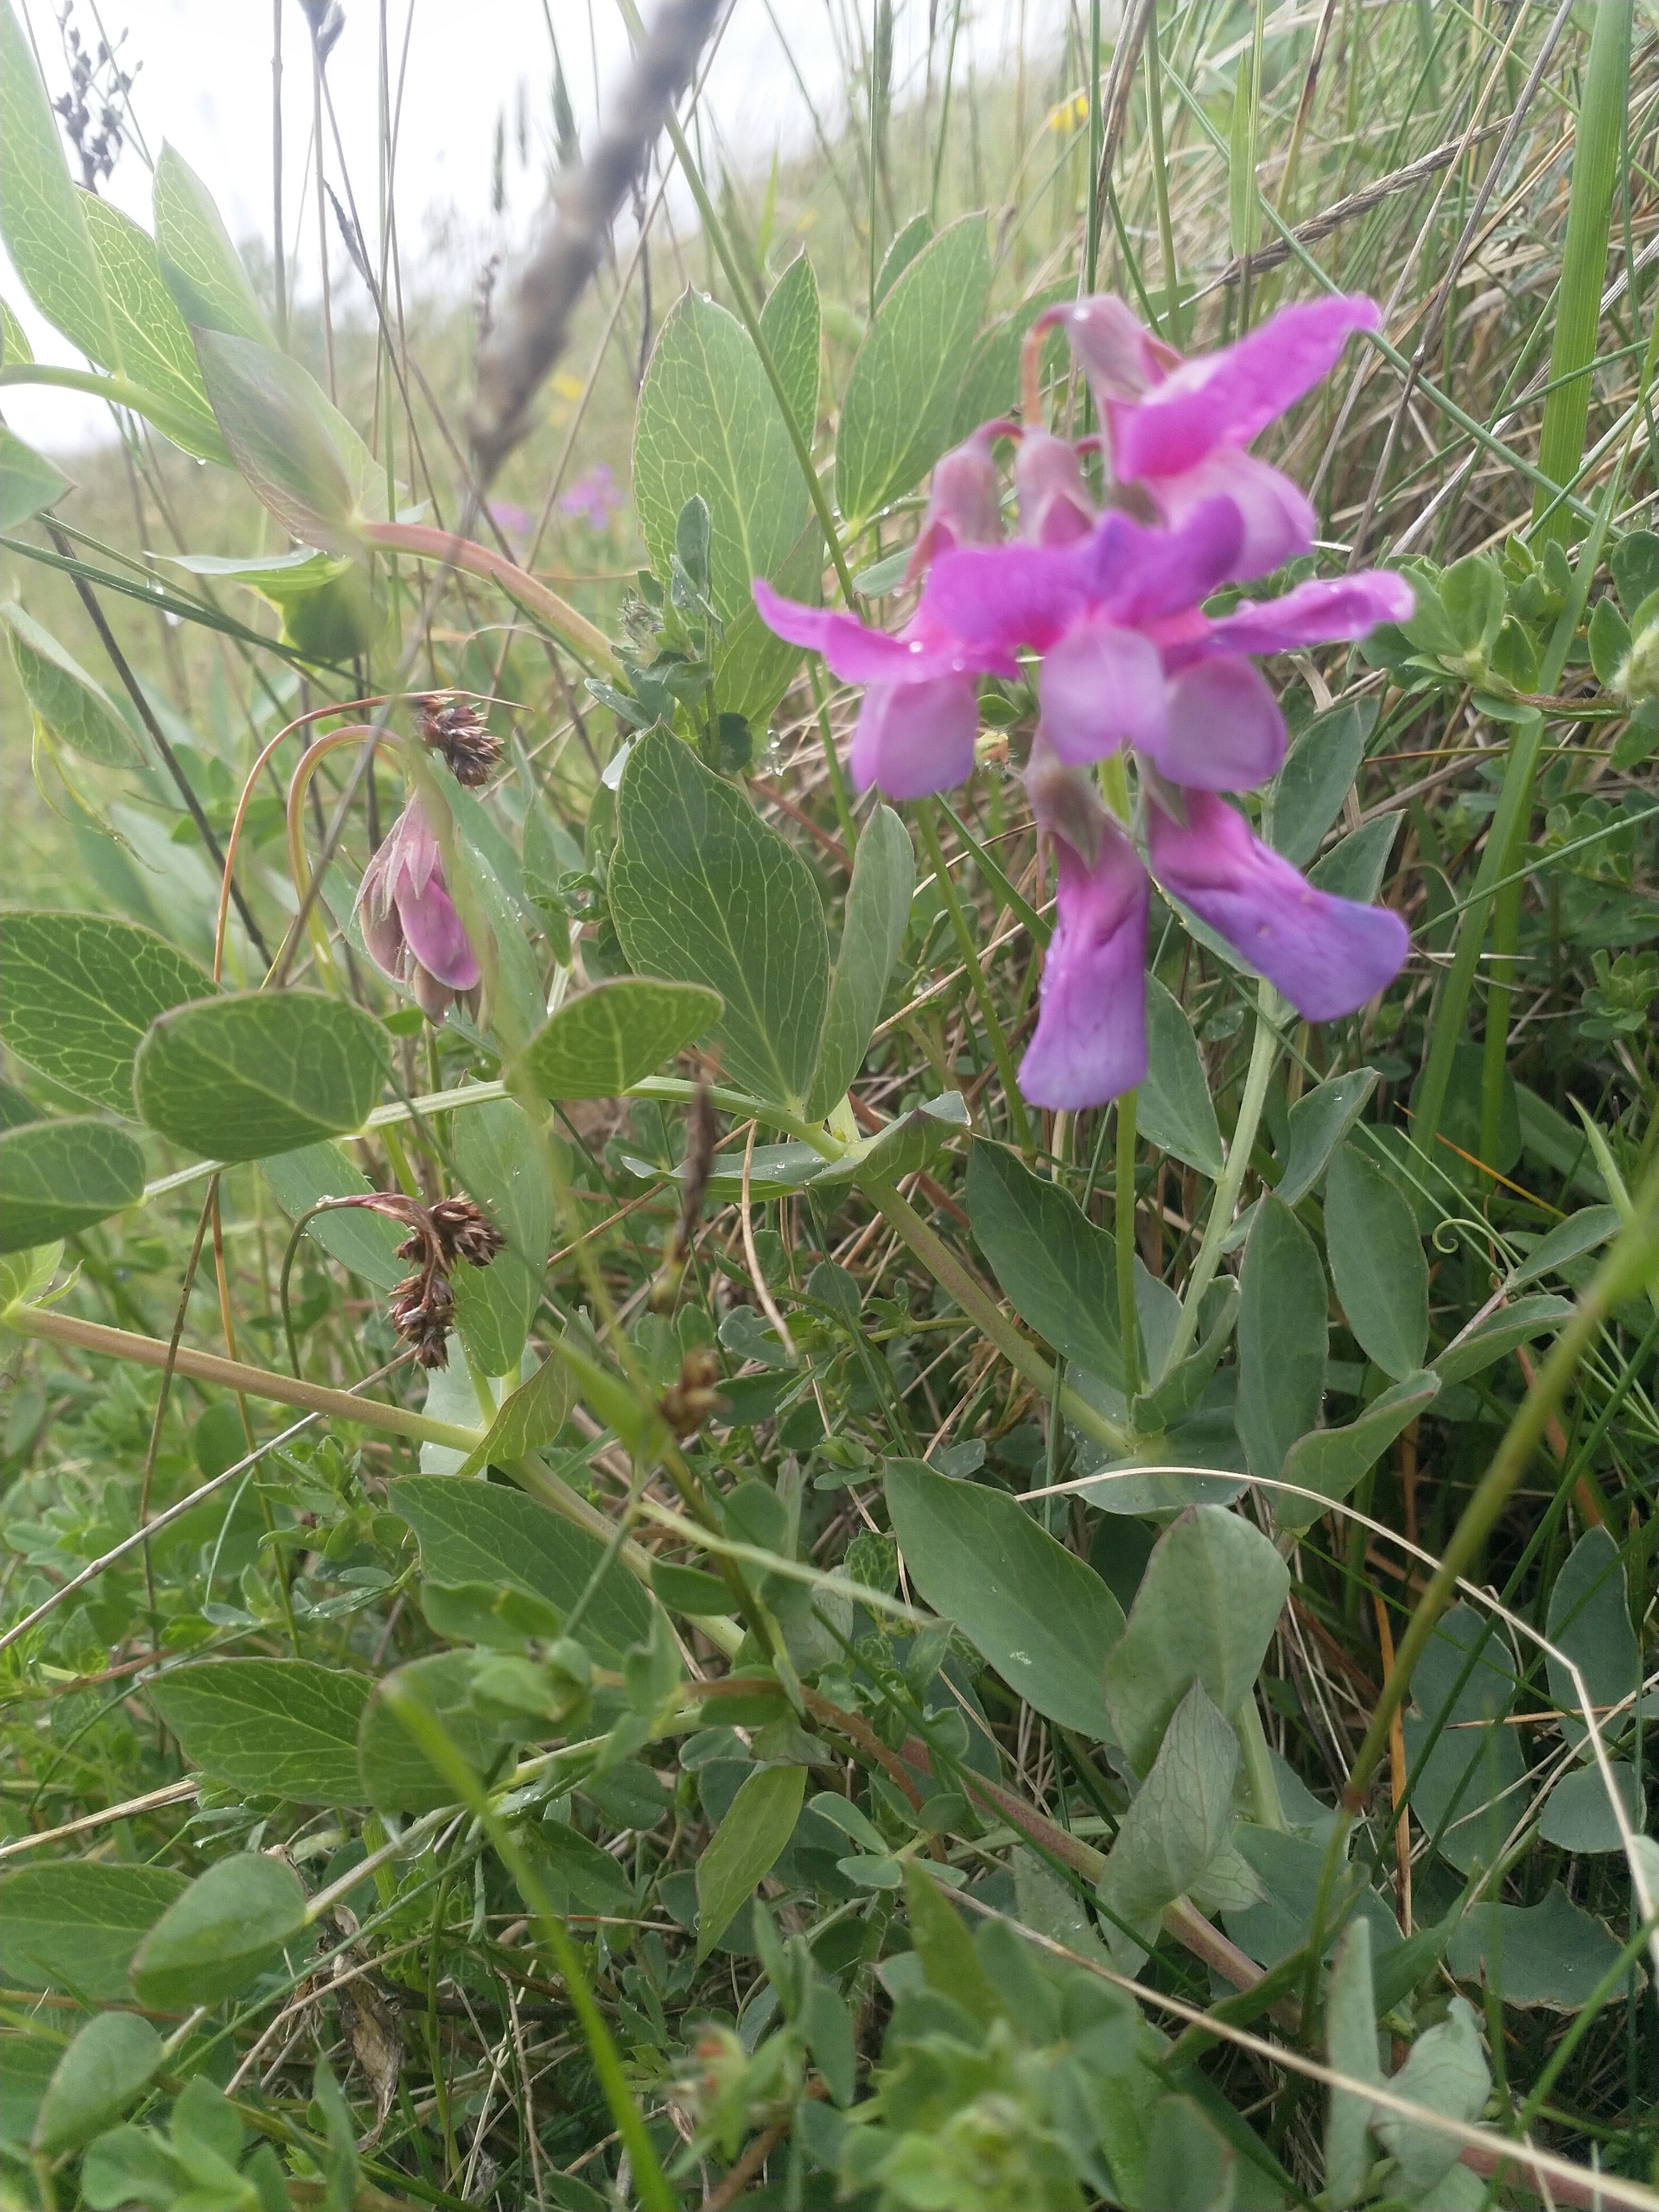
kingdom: Plantae
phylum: Tracheophyta
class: Magnoliopsida
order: Fabales
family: Fabaceae
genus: Lathyrus
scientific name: Lathyrus japonicus
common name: Strand-fladbælg
